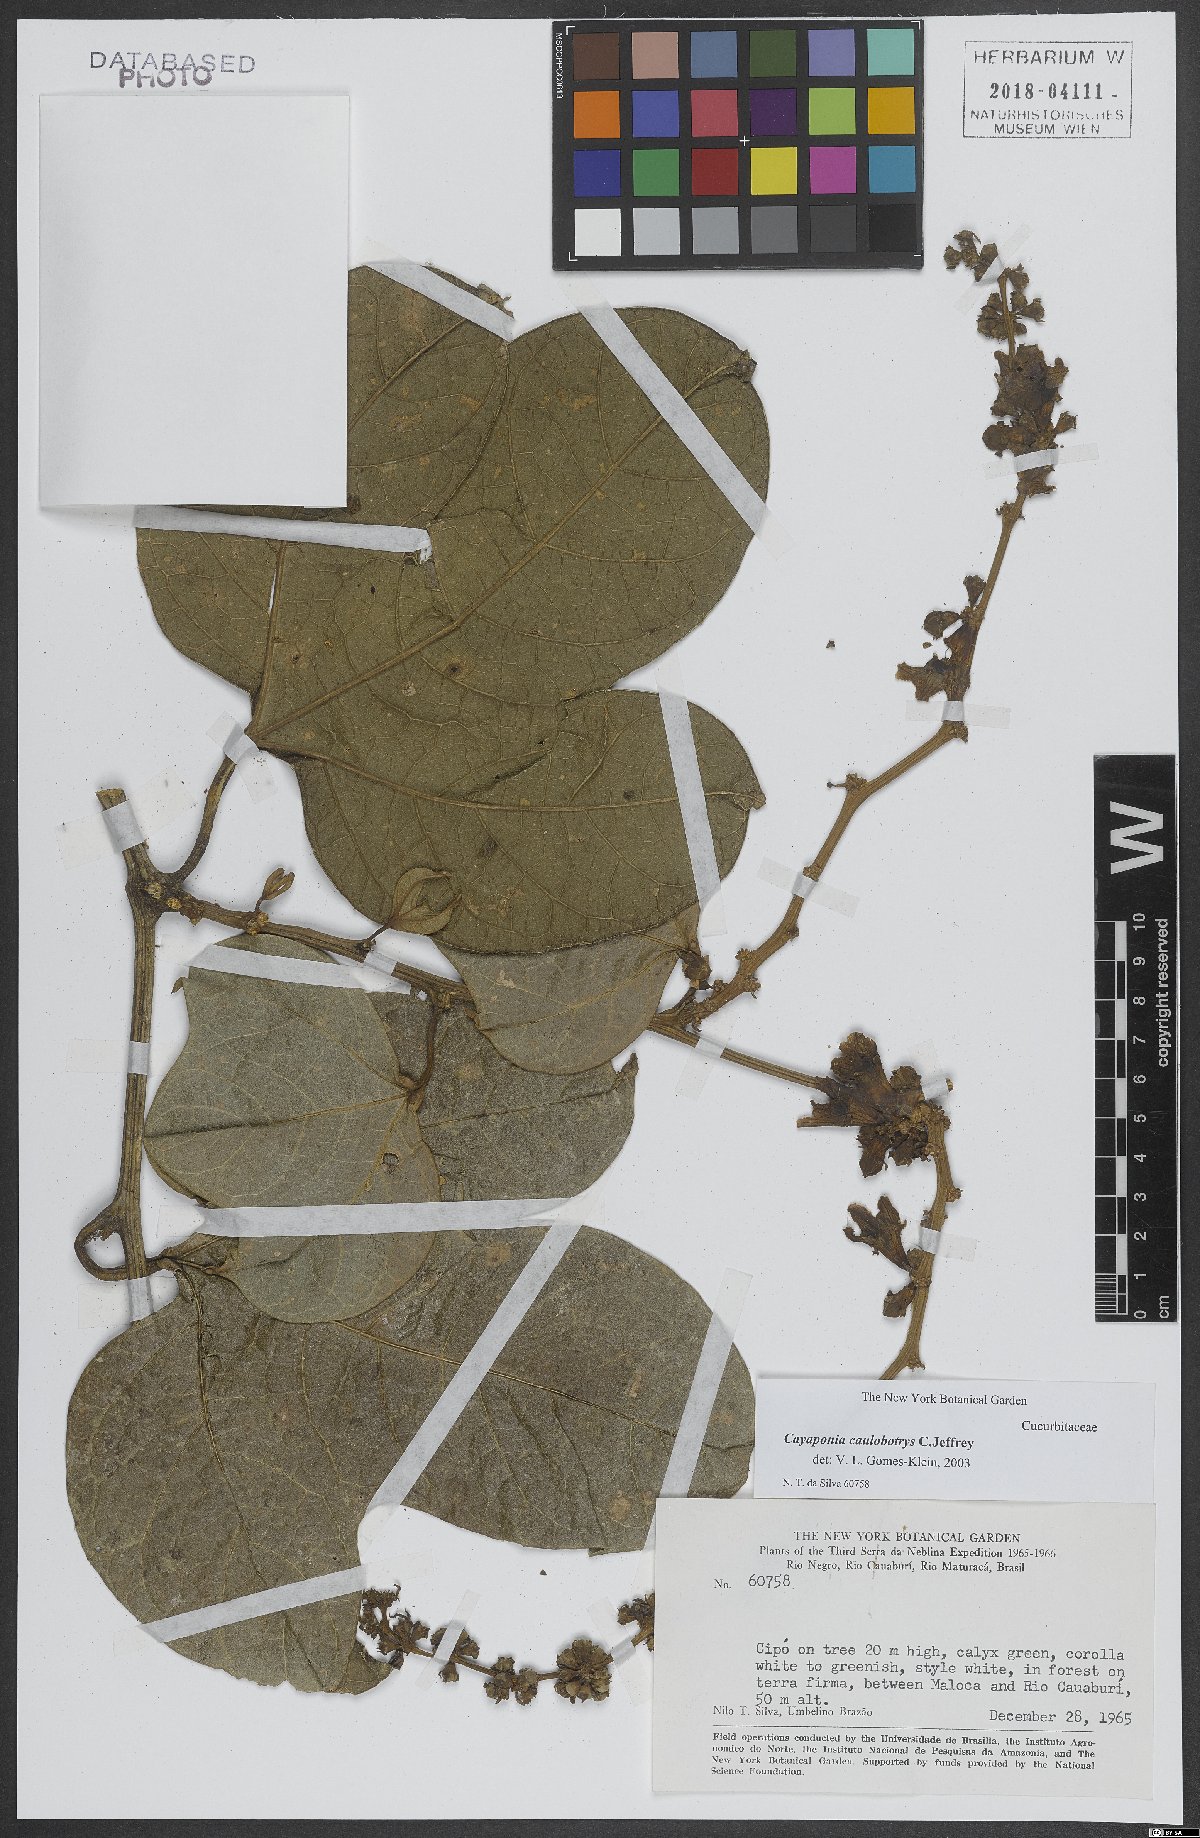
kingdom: Plantae
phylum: Tracheophyta
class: Magnoliopsida
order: Cucurbitales
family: Cucurbitaceae
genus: Cayaponia
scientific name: Cayaponia caulobotrys
